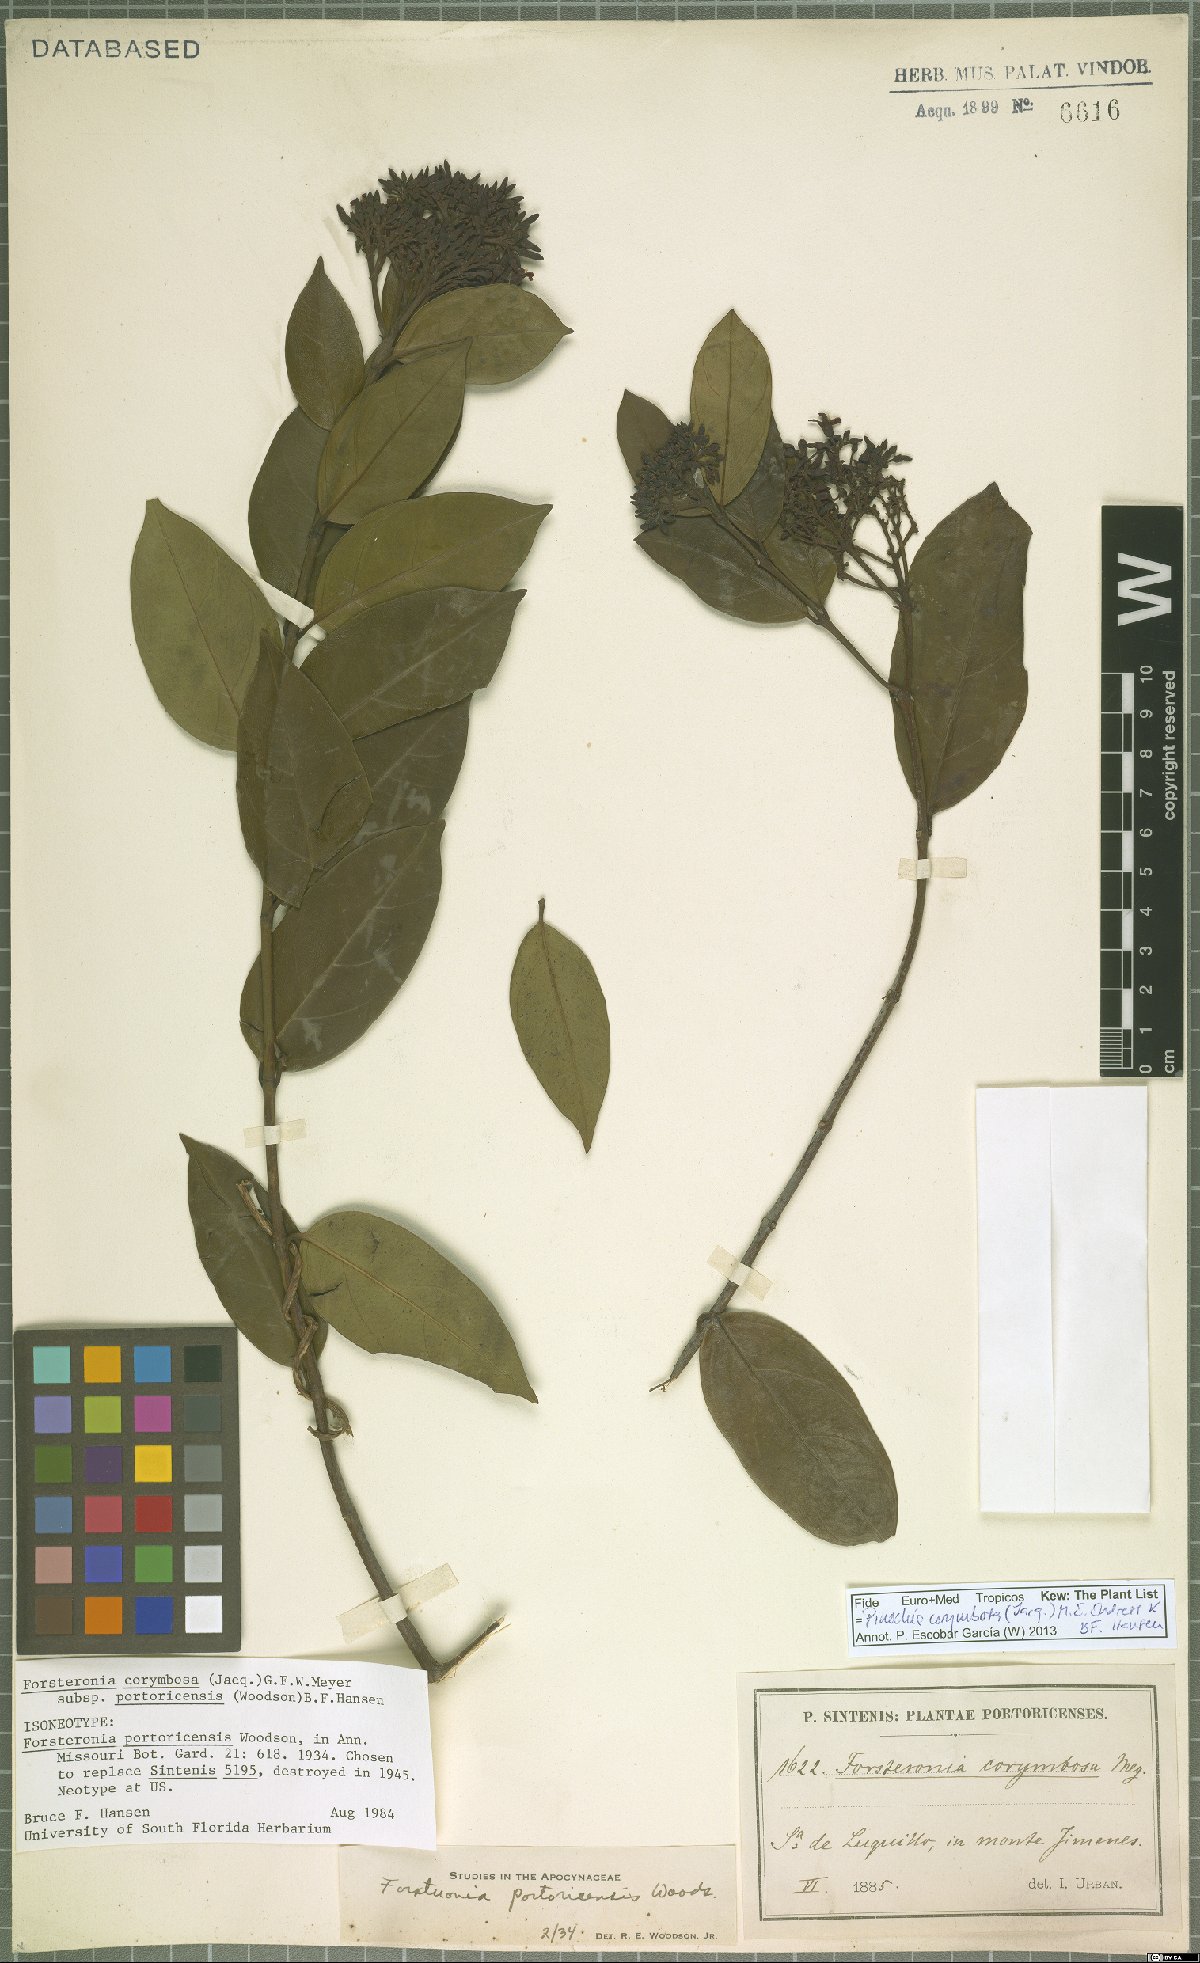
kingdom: Plantae
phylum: Tracheophyta
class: Magnoliopsida
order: Gentianales
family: Apocynaceae
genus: Pinochia
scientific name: Pinochia corymbosa
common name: Sanjuanera
